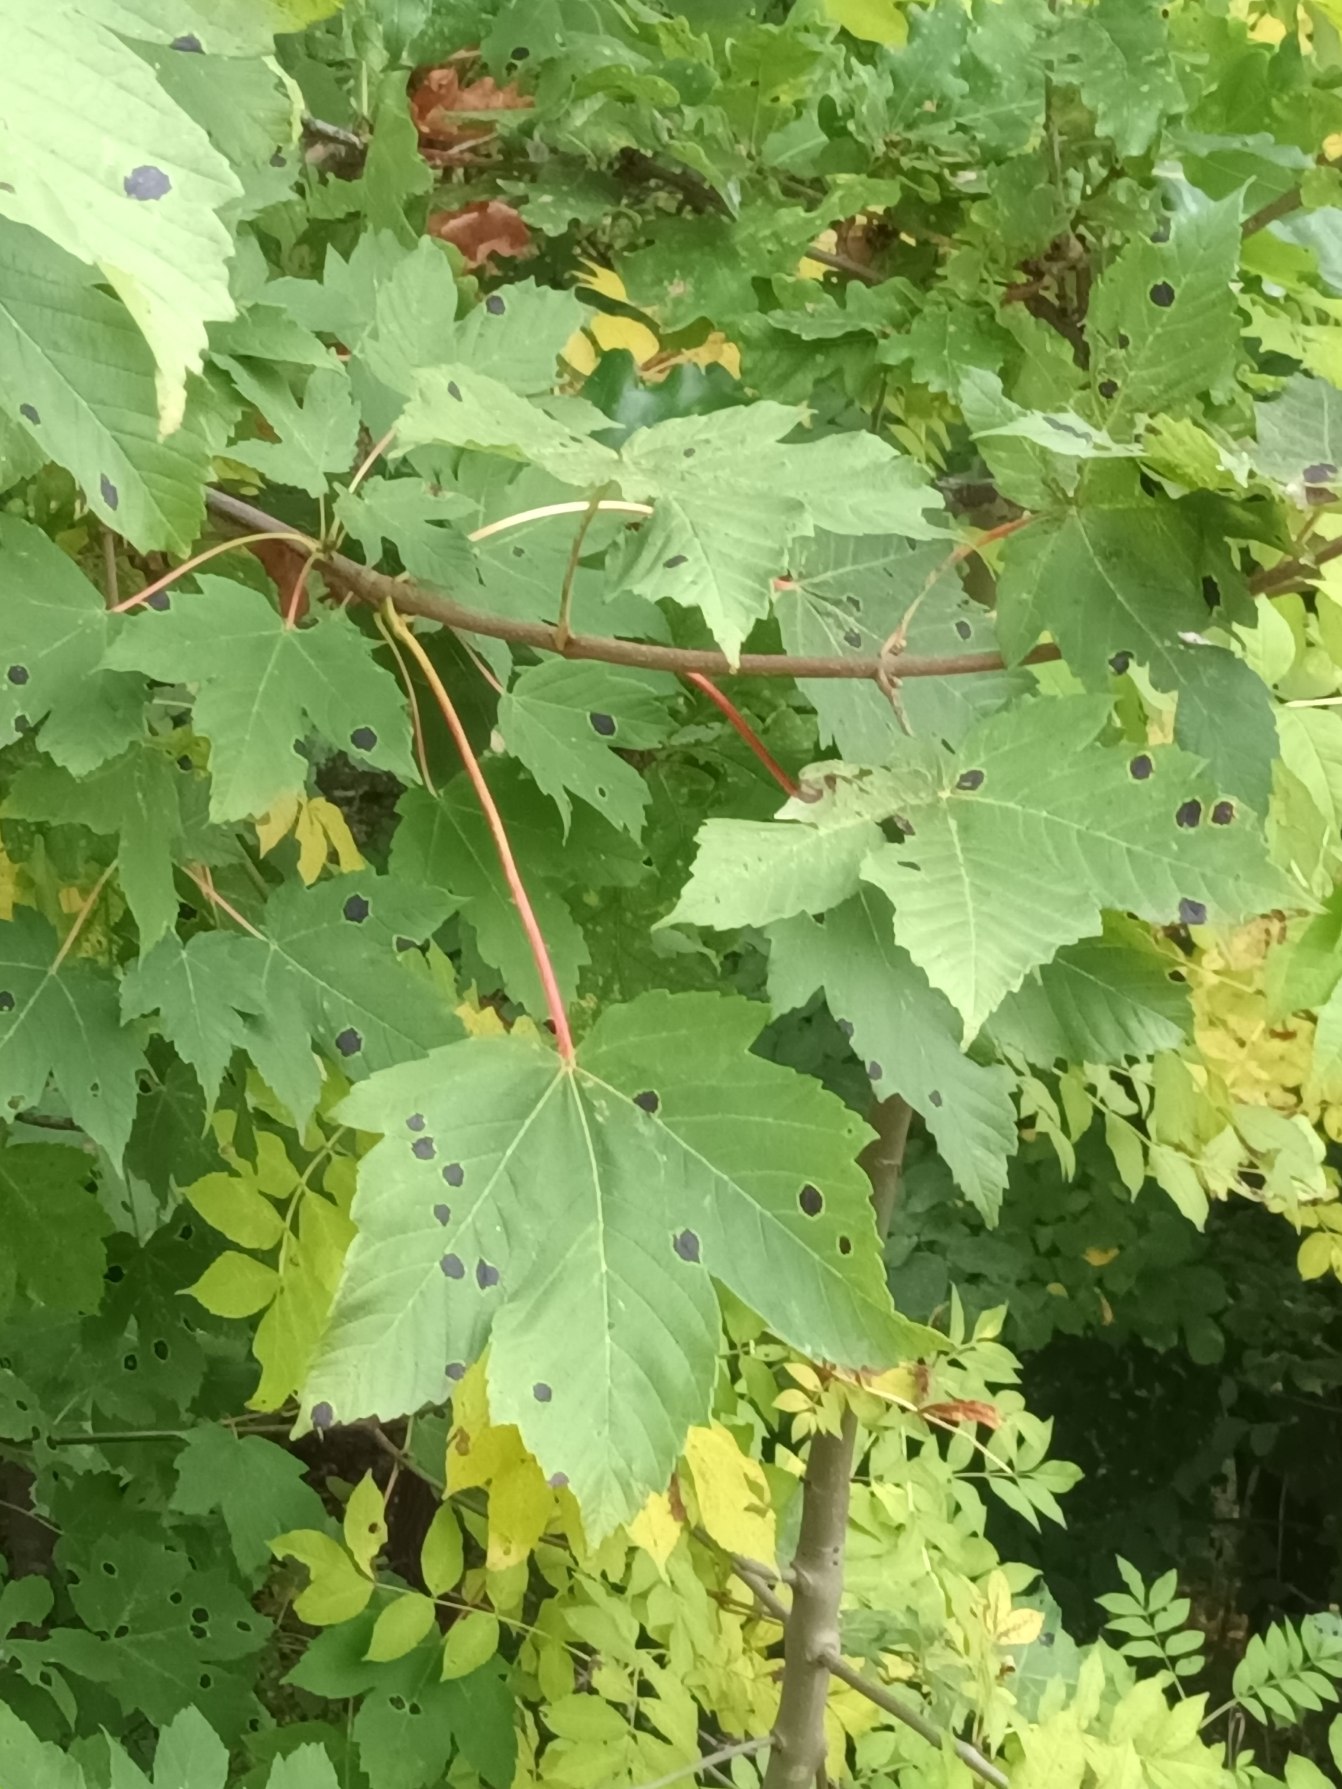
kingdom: Plantae
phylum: Tracheophyta
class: Magnoliopsida
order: Sapindales
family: Sapindaceae
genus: Acer
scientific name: Acer pseudoplatanus
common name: Ahorn
